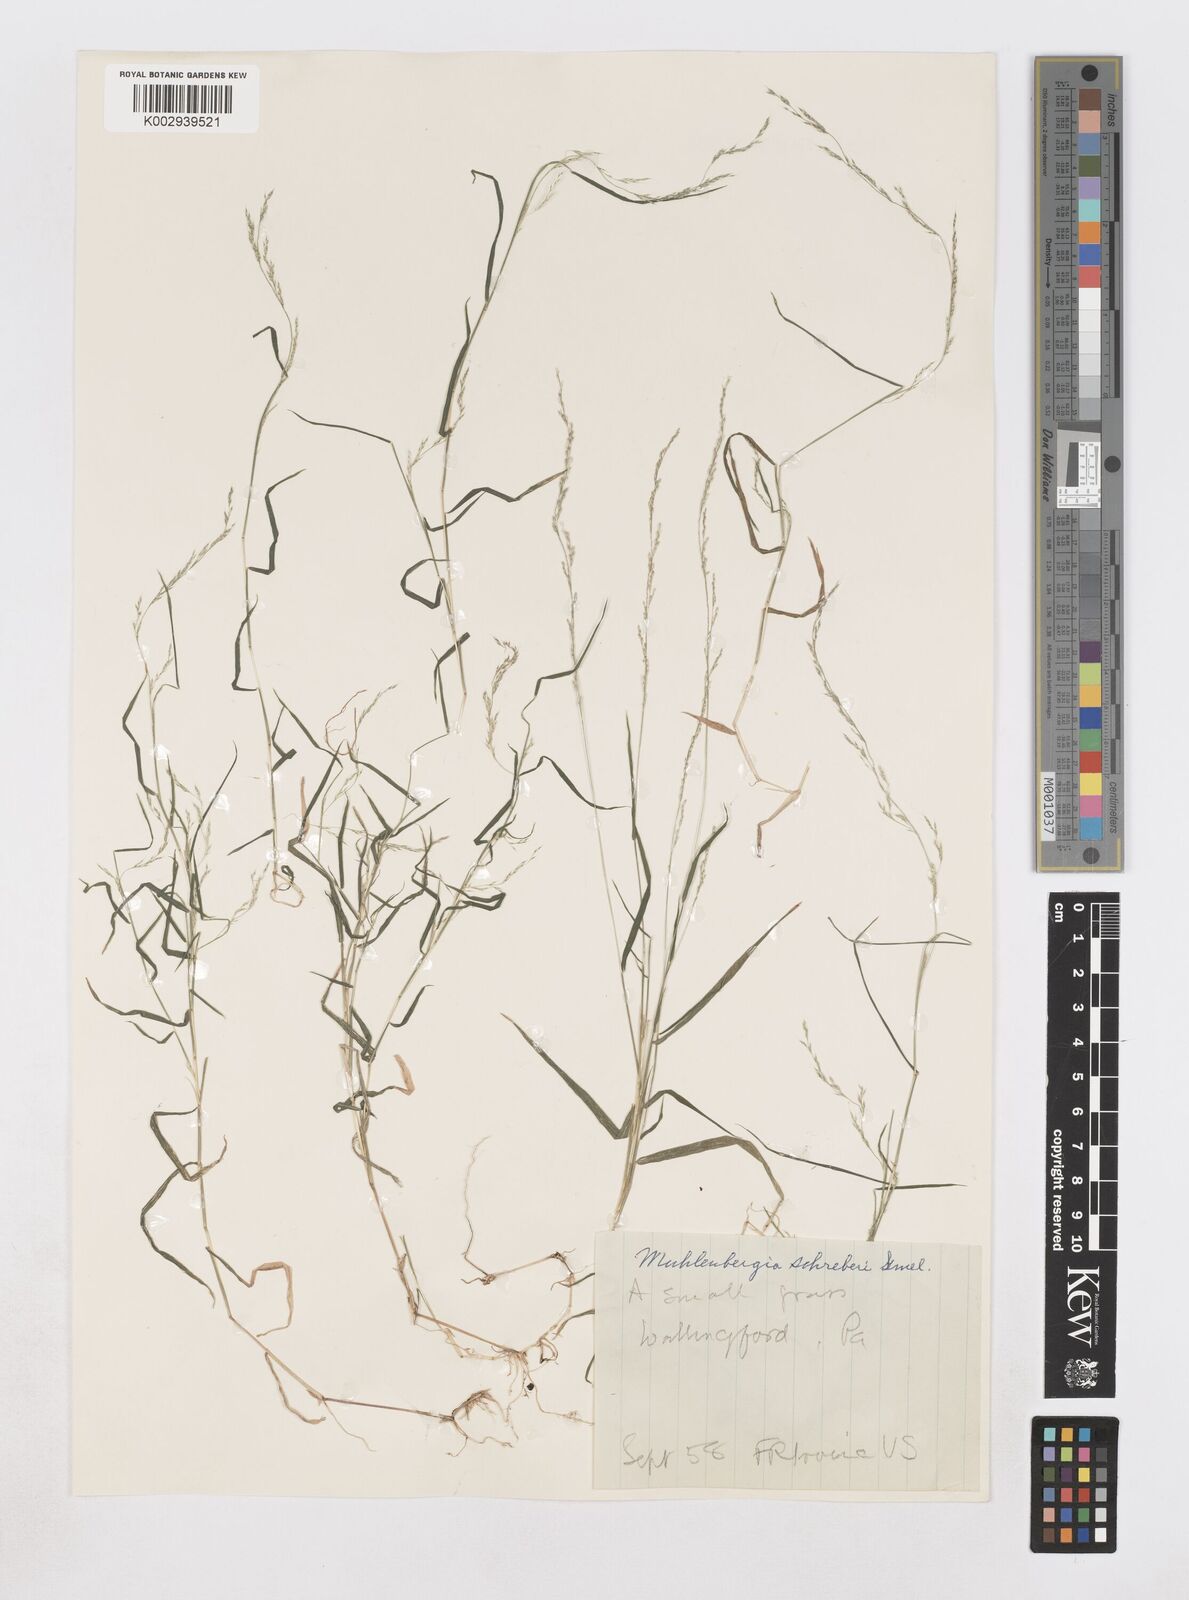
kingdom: Plantae
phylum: Tracheophyta
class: Liliopsida
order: Poales
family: Poaceae
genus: Muhlenbergia
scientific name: Muhlenbergia schreberi
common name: Nimblewill
